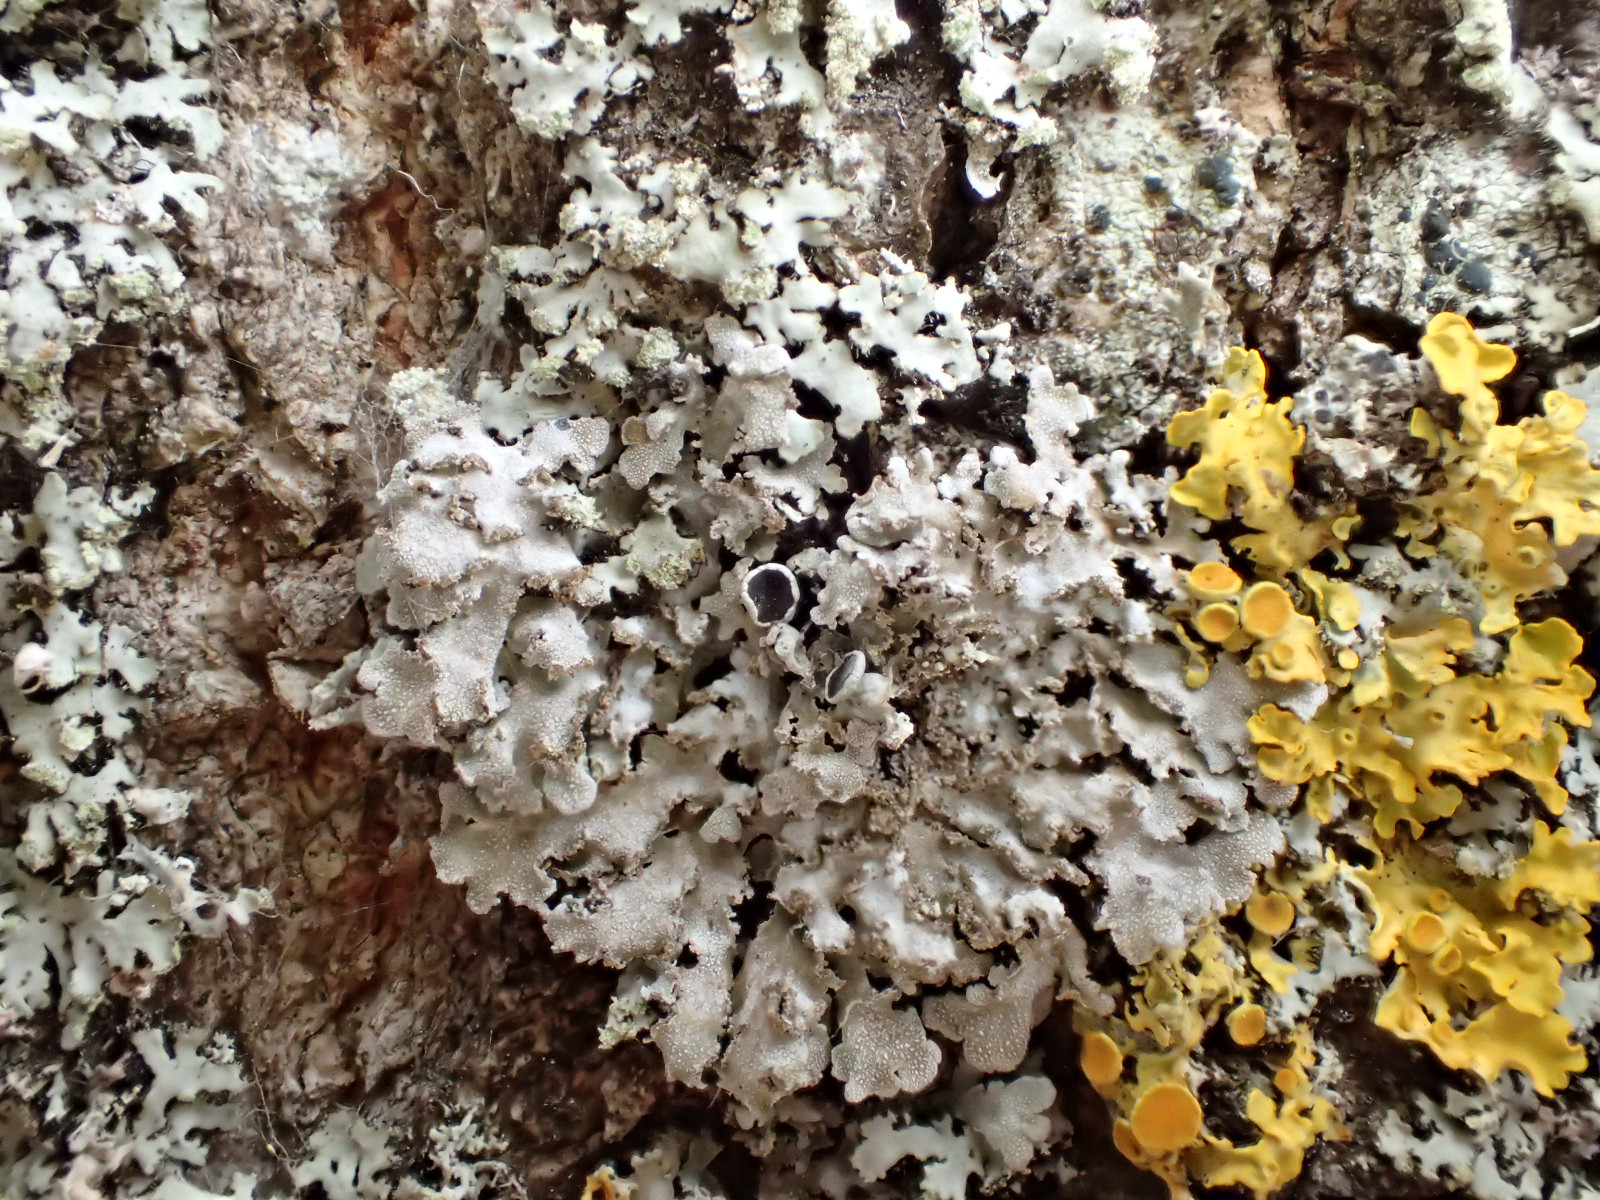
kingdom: Fungi
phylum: Ascomycota
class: Lecanoromycetes
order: Caliciales
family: Physciaceae
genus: Physconia
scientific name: Physconia perisidiosa
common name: liden dugrosetlav
